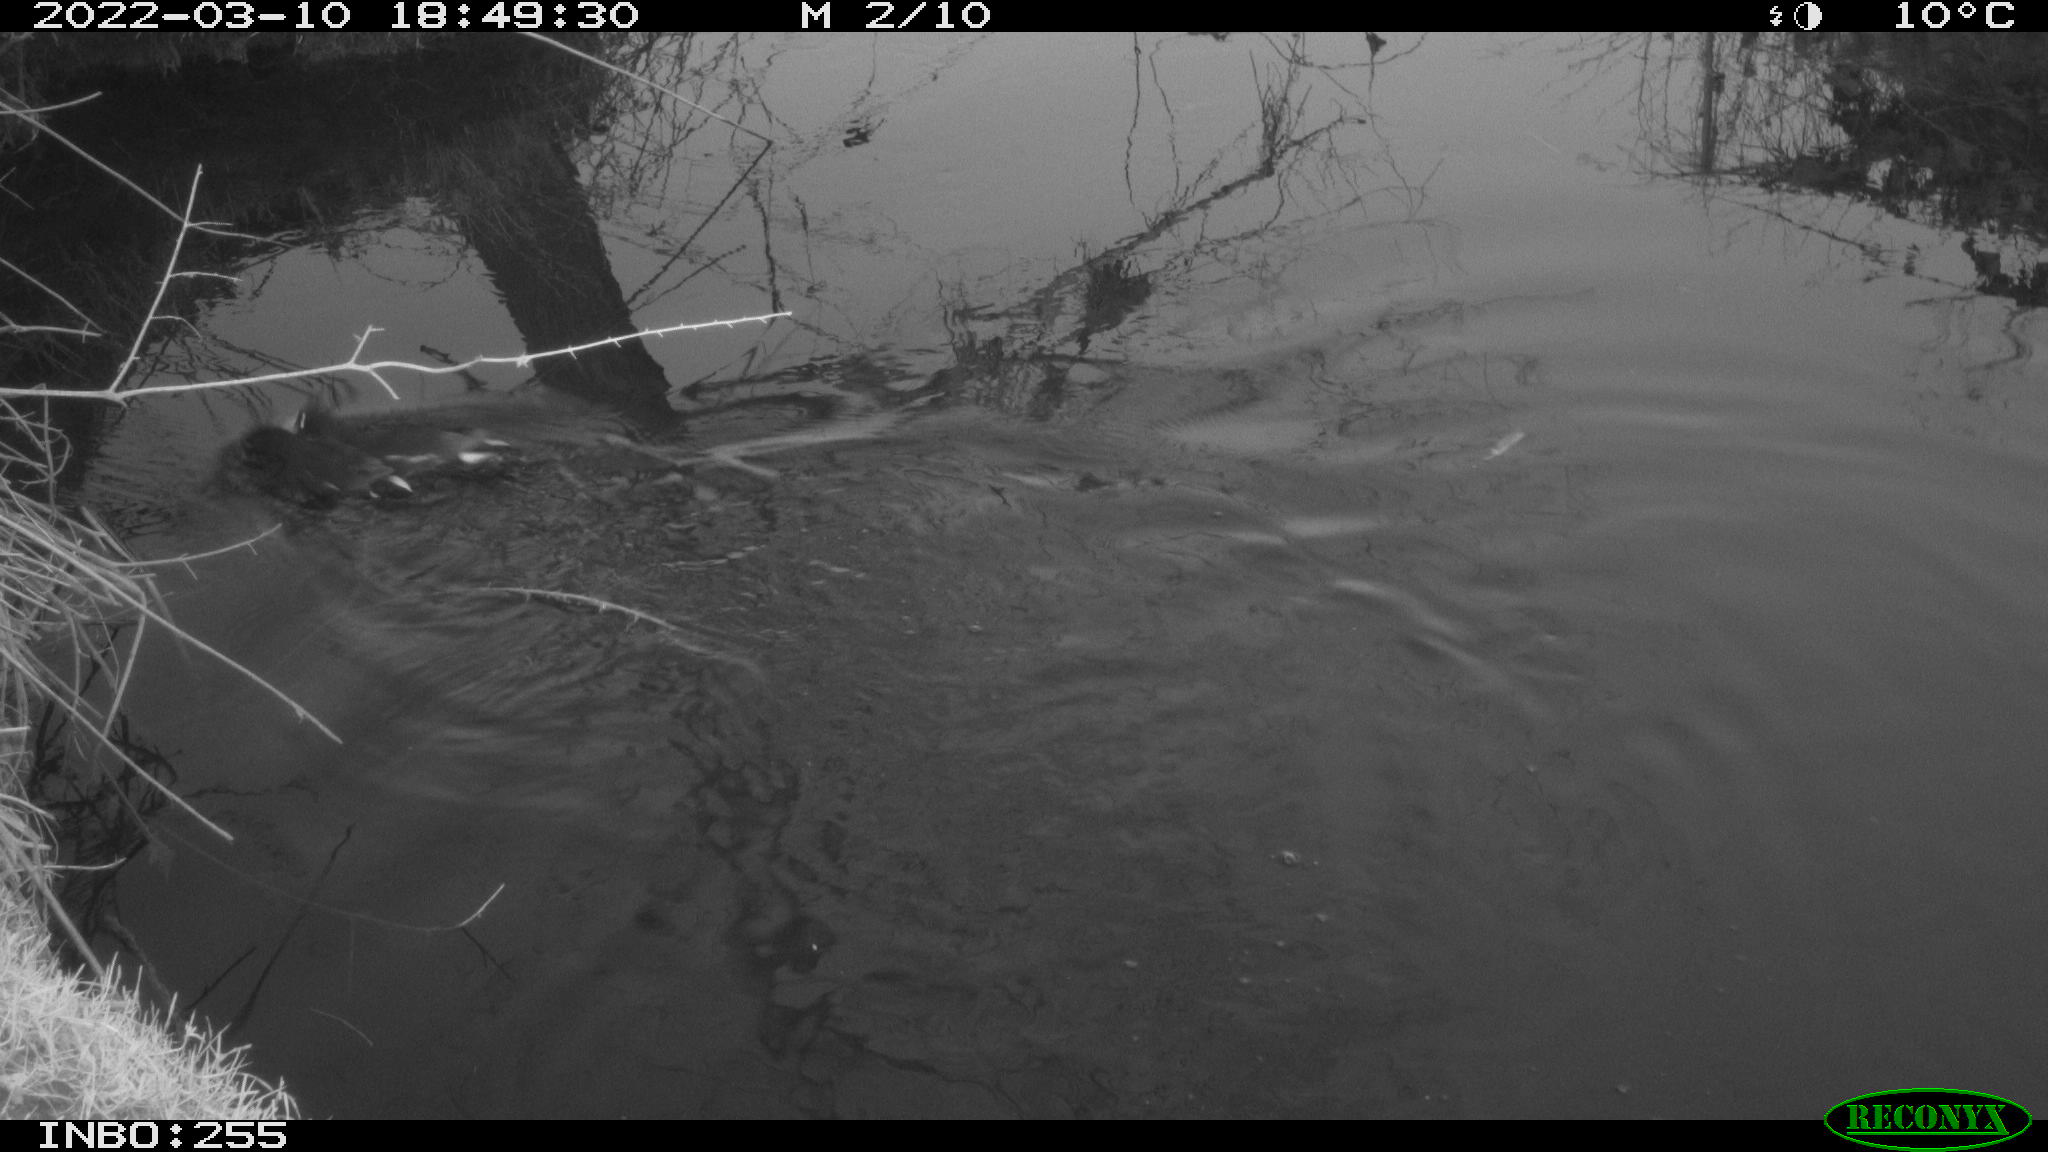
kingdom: Animalia
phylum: Chordata
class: Aves
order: Gruiformes
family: Rallidae
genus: Gallinula
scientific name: Gallinula chloropus
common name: Common moorhen
